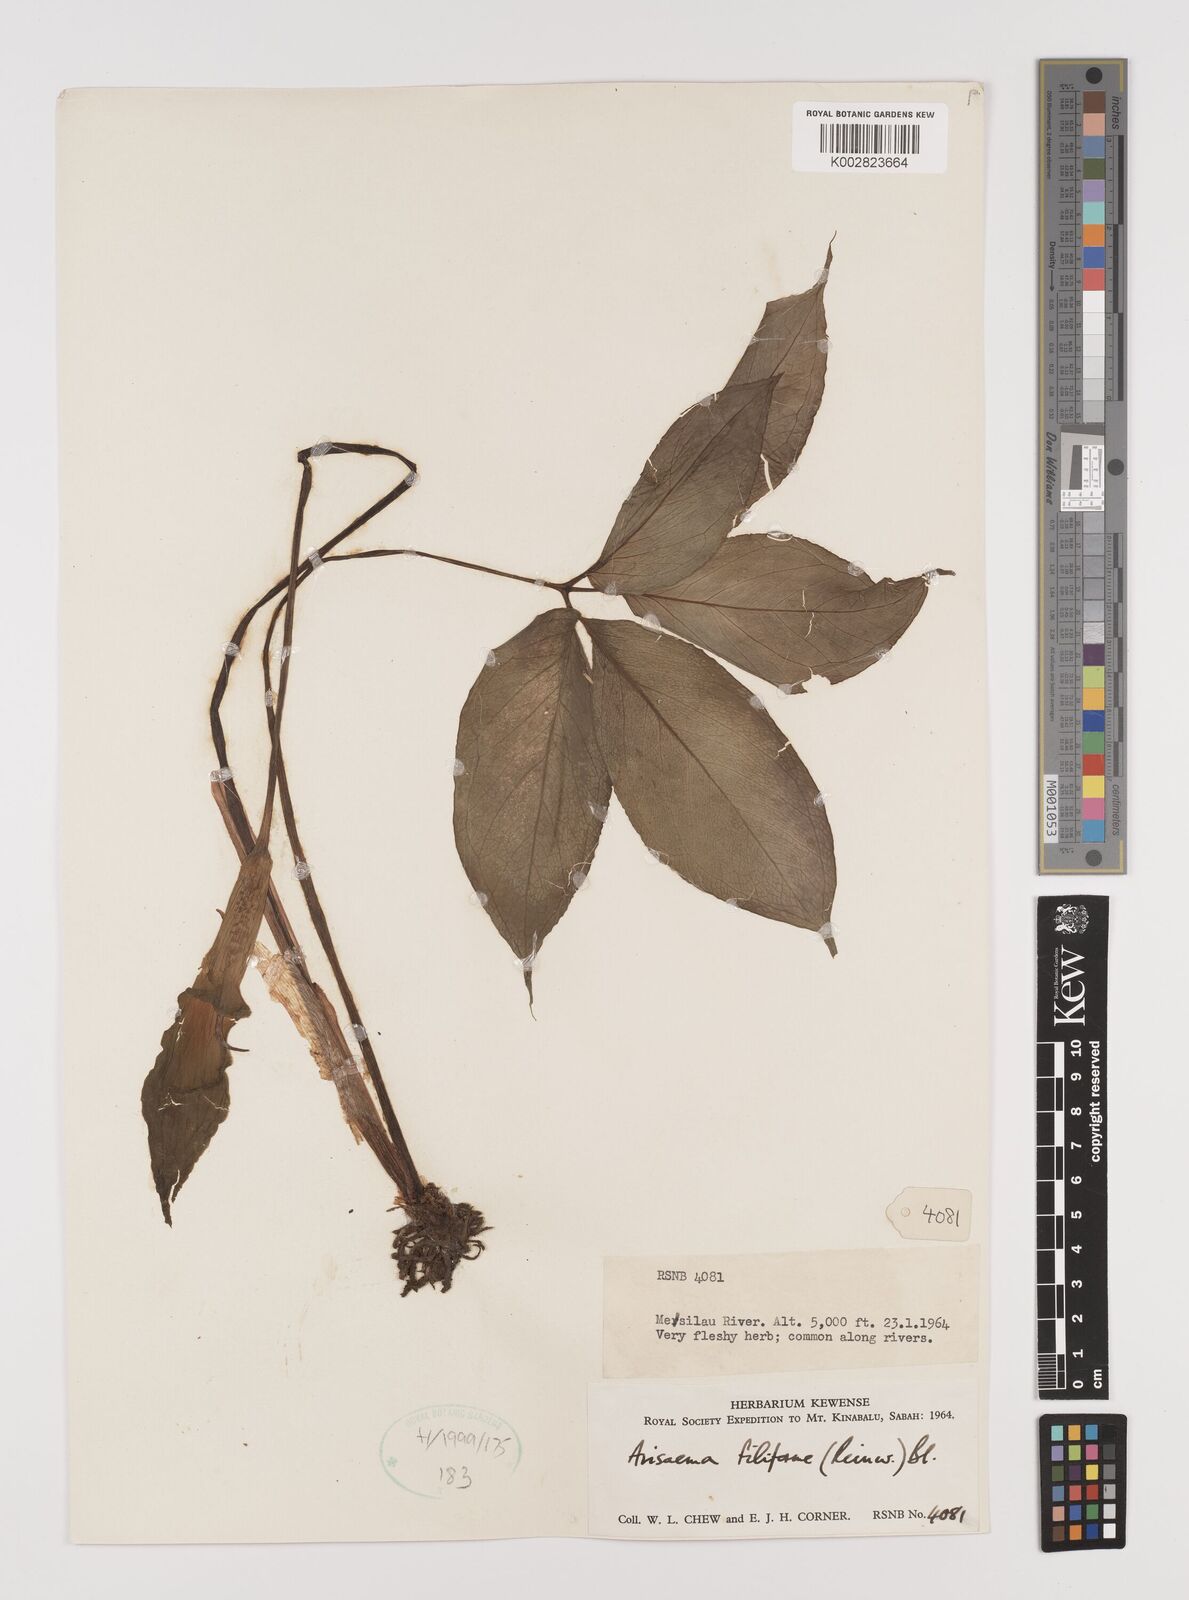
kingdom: Plantae
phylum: Tracheophyta
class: Liliopsida
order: Alismatales
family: Araceae
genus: Arisaema
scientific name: Arisaema filiforme
